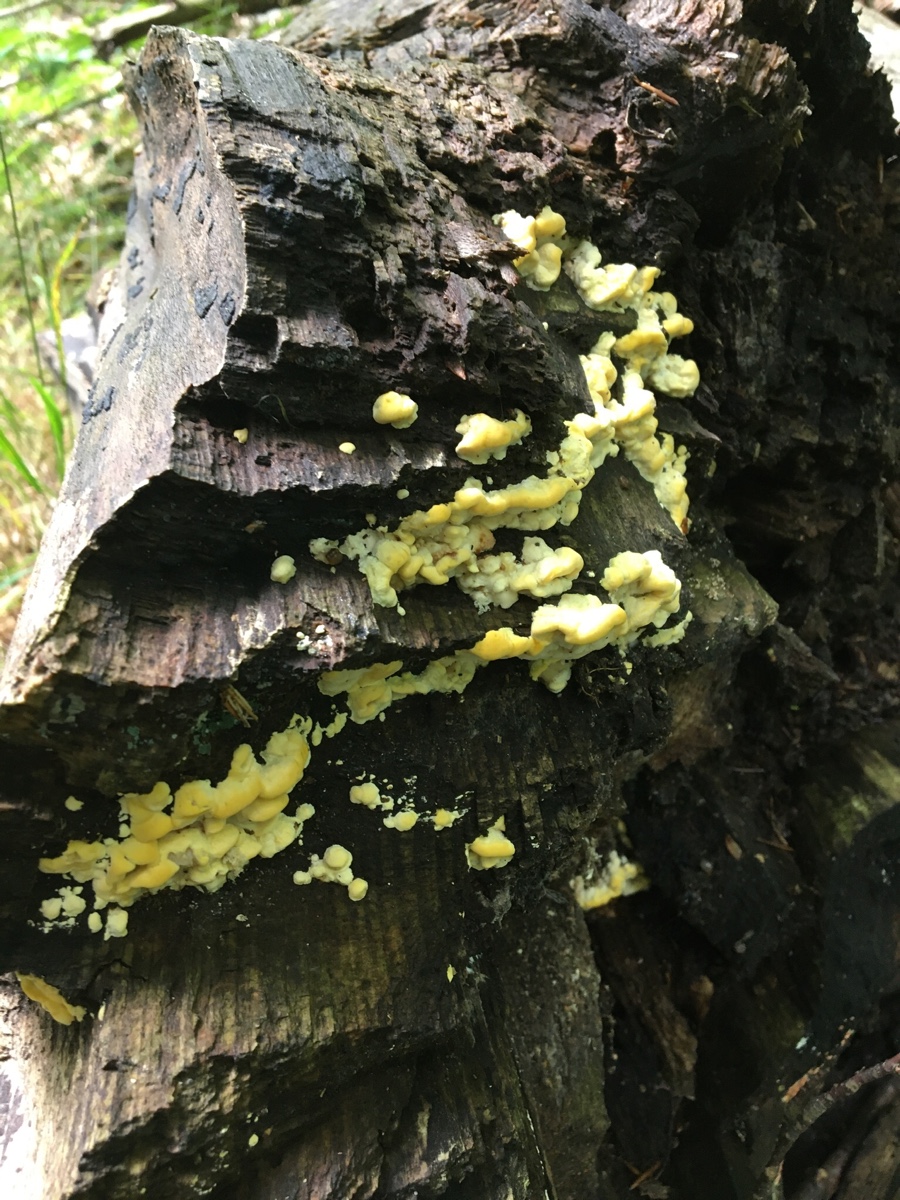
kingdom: Fungi
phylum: Basidiomycota
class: Agaricomycetes
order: Polyporales
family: Steccherinaceae
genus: Antrodiella
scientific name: Antrodiella serpula
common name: gulrandet elastikporesvamp
